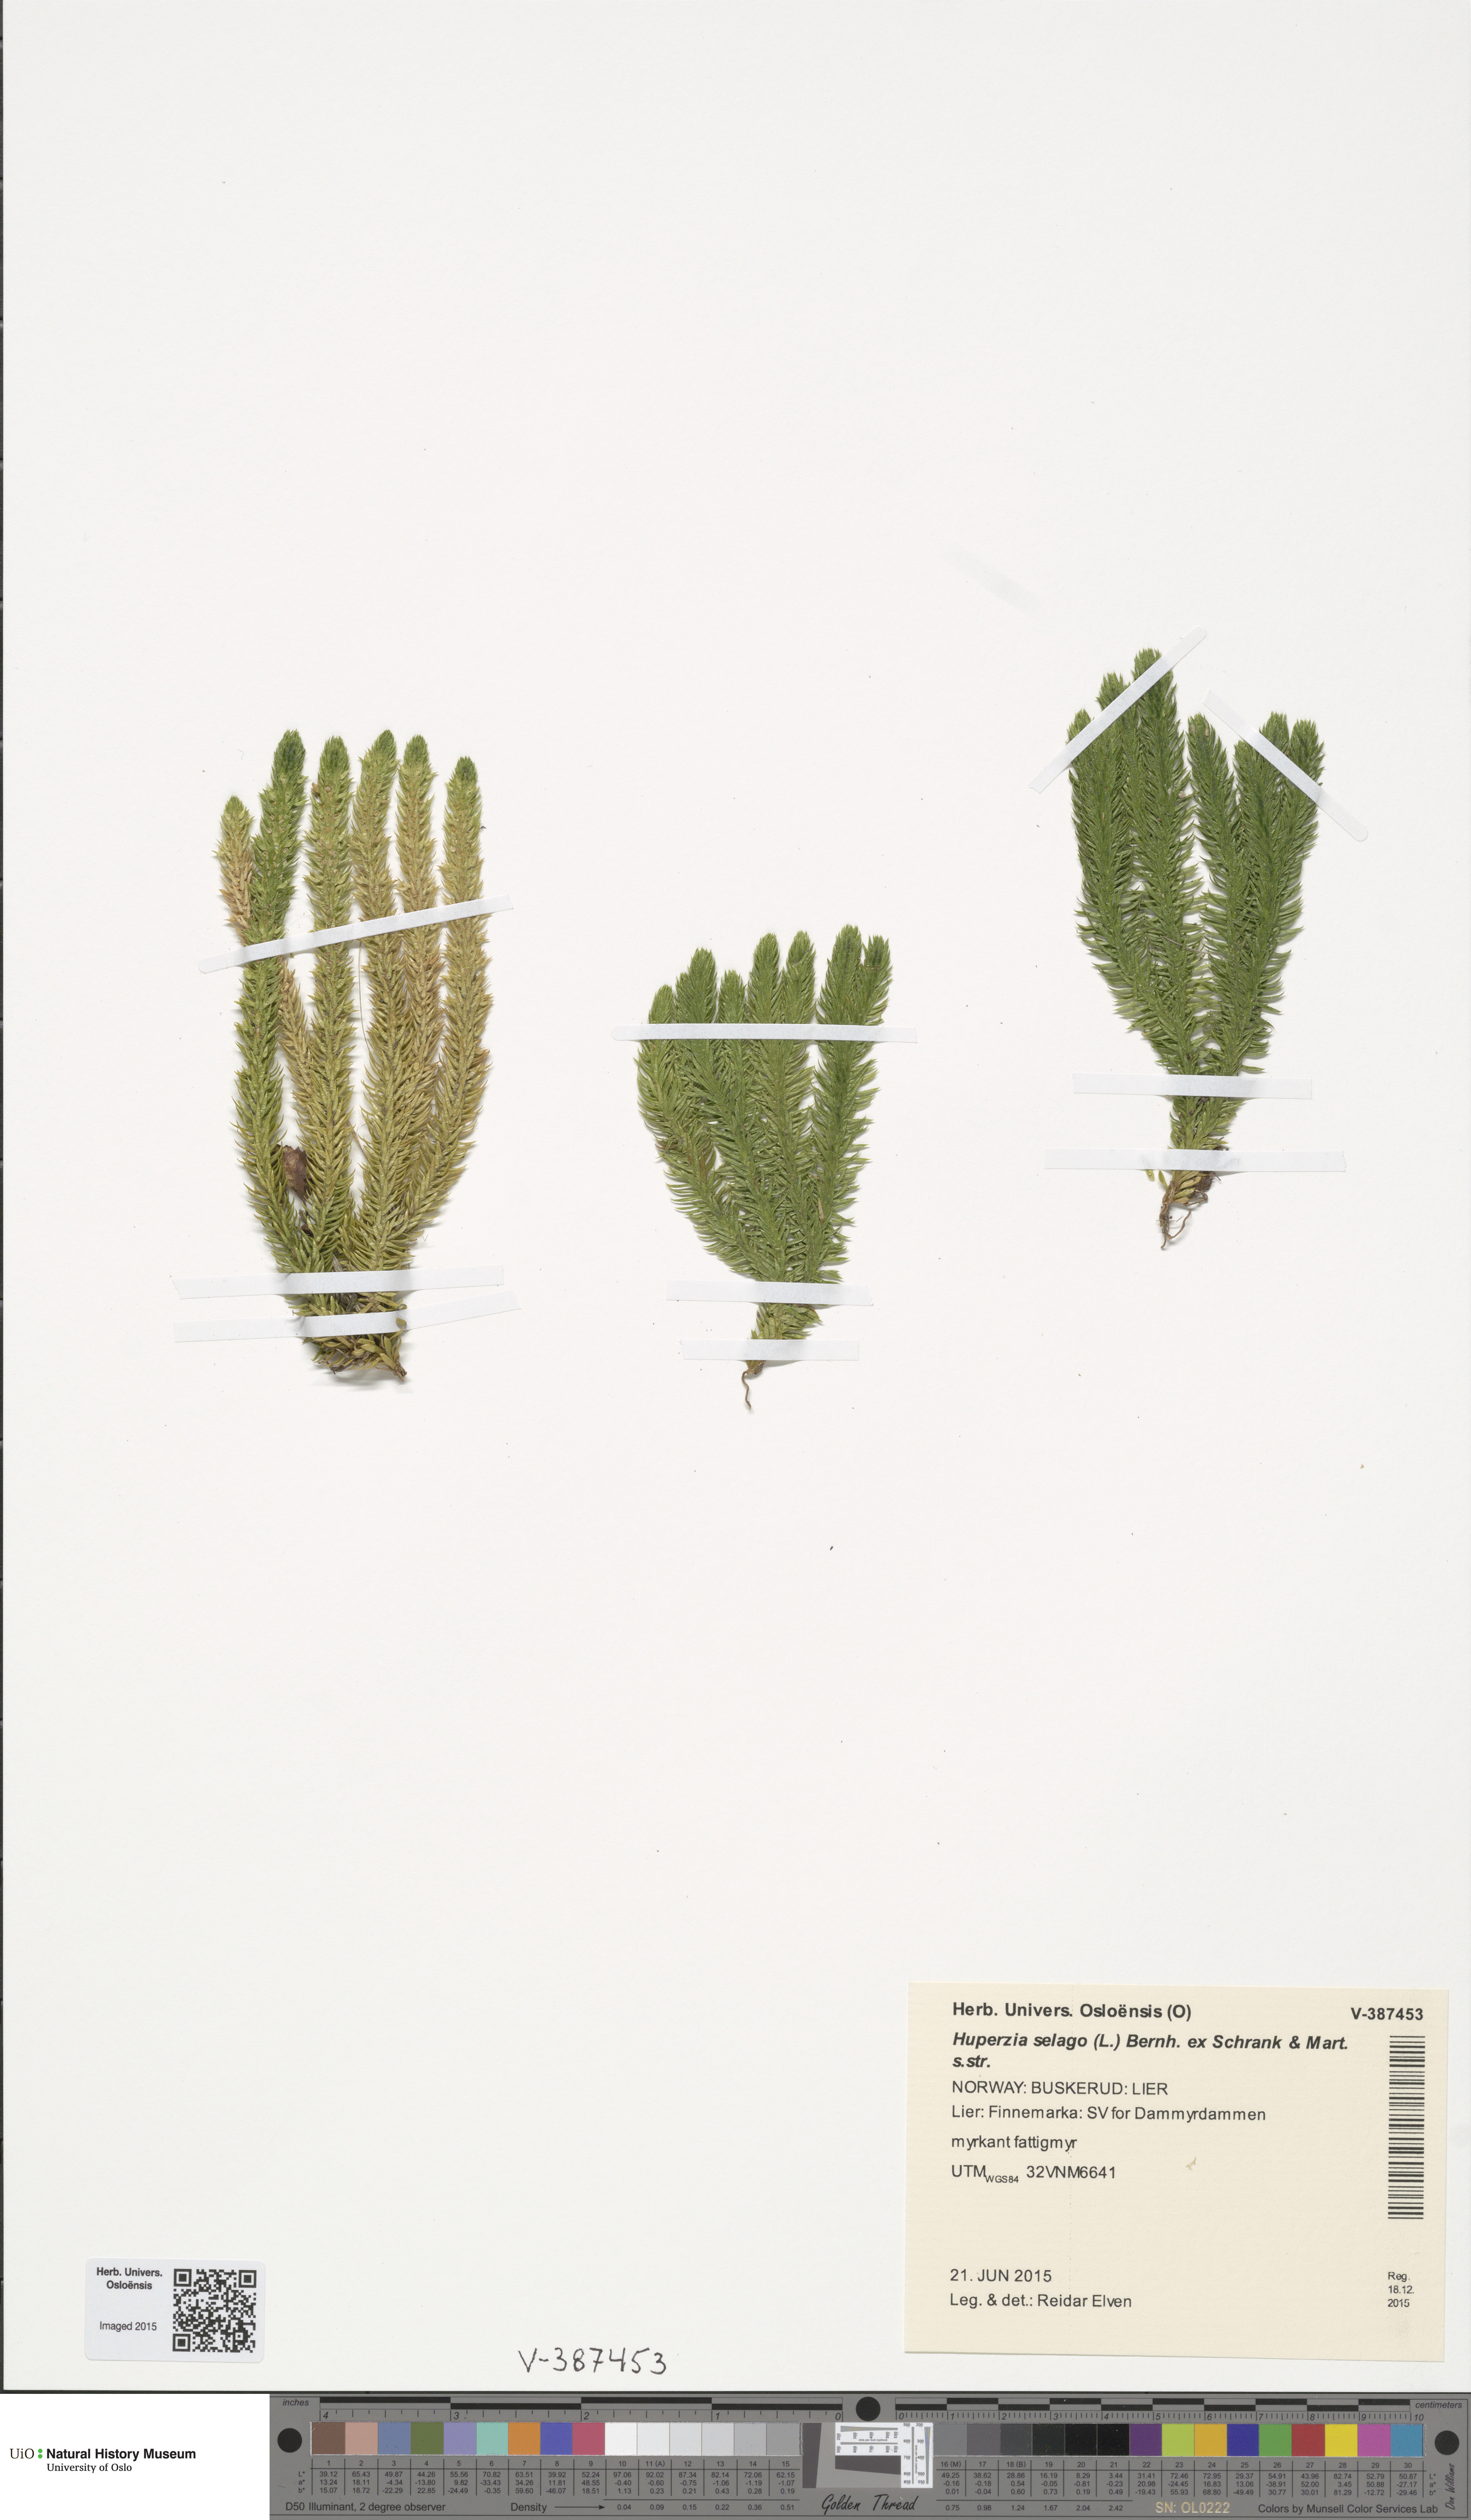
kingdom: Plantae
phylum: Tracheophyta
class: Lycopodiopsida
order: Lycopodiales
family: Lycopodiaceae
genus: Huperzia
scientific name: Huperzia selago
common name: Northern firmoss
